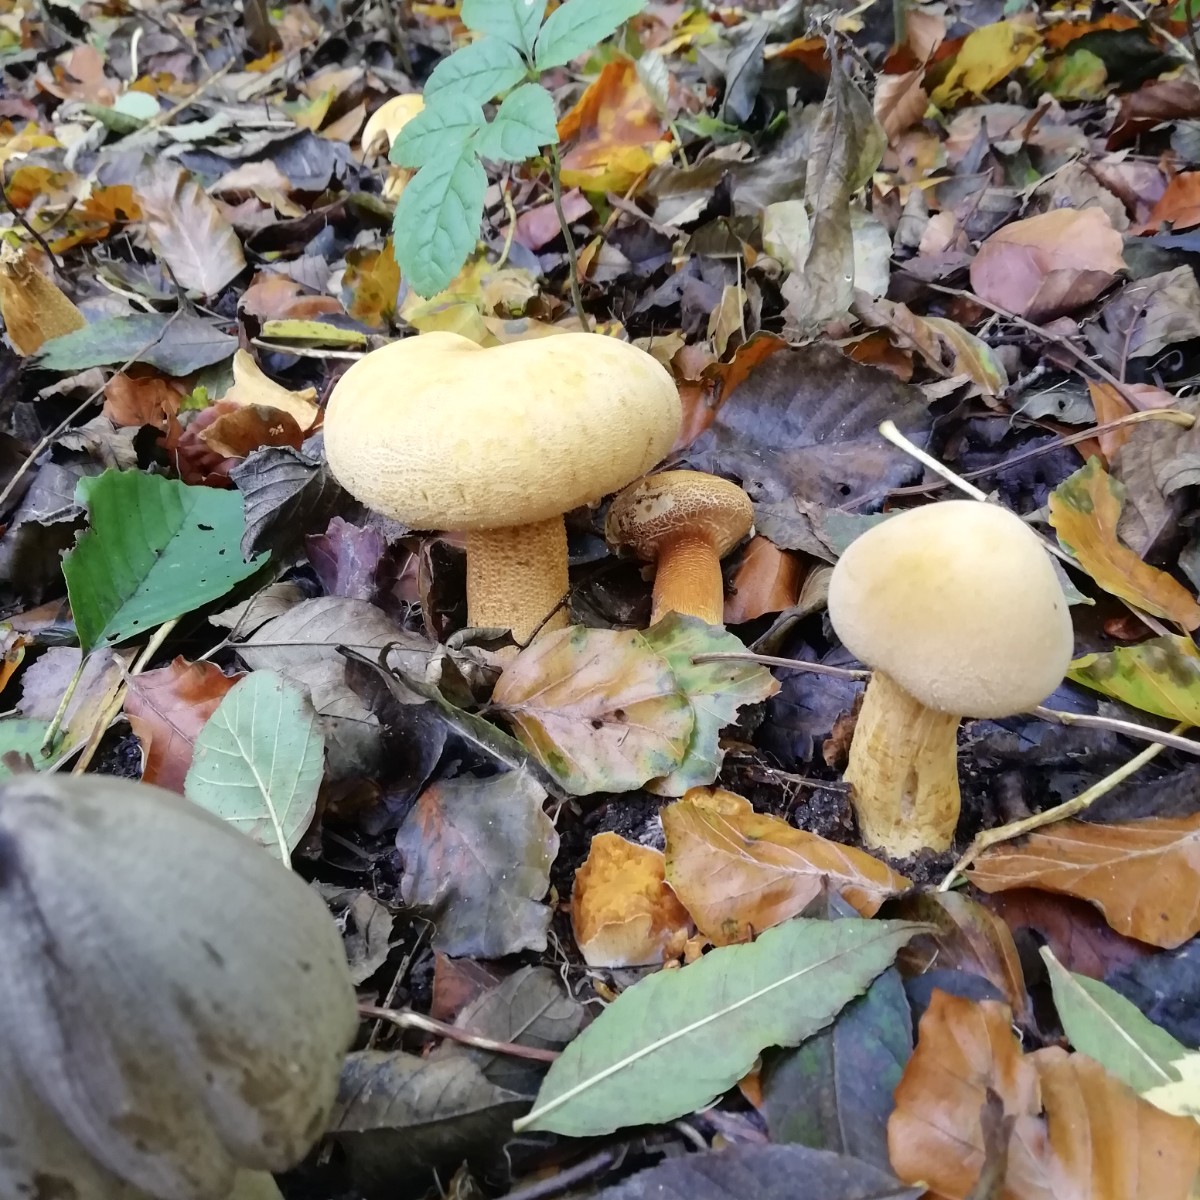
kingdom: Fungi
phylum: Basidiomycota
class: Agaricomycetes
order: Agaricales
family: Tricholomataceae
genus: Phaeolepiota
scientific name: Phaeolepiota aurea
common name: gyldenhat
